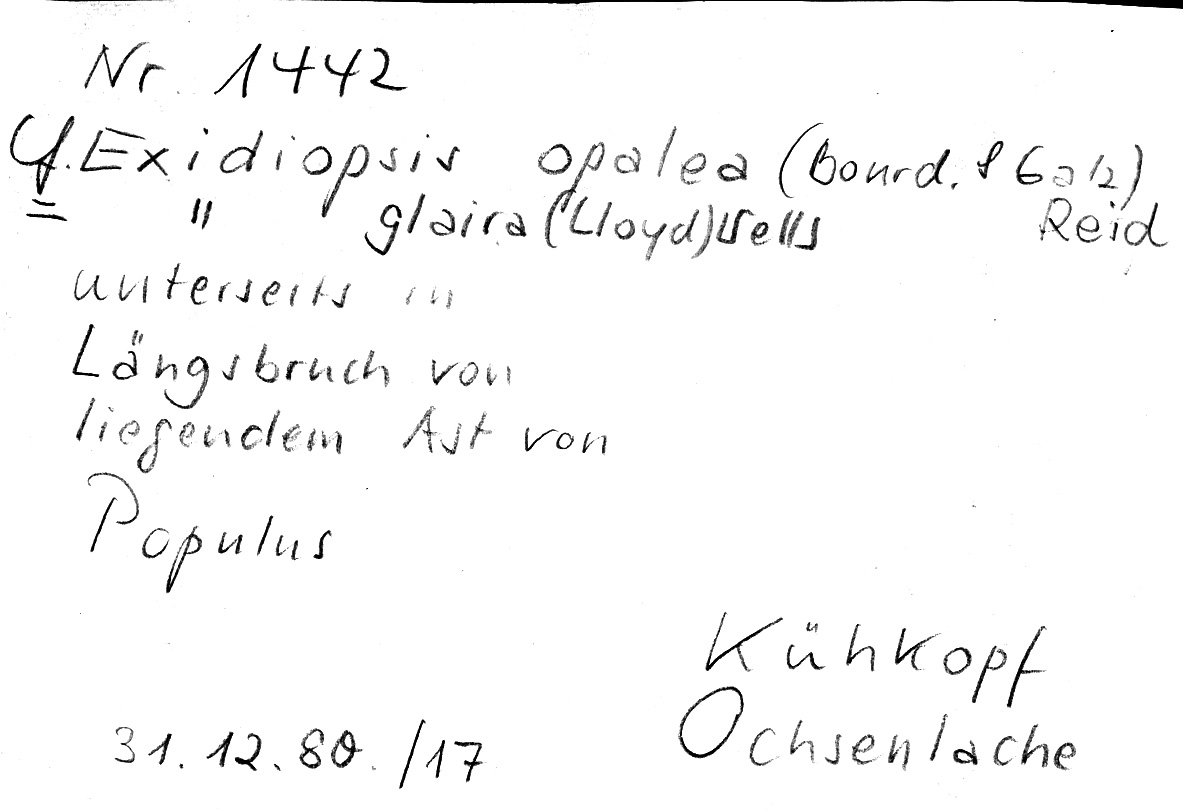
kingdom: Plantae
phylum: Tracheophyta
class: Magnoliopsida
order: Malpighiales
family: Salicaceae
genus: Populus
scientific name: Populus
